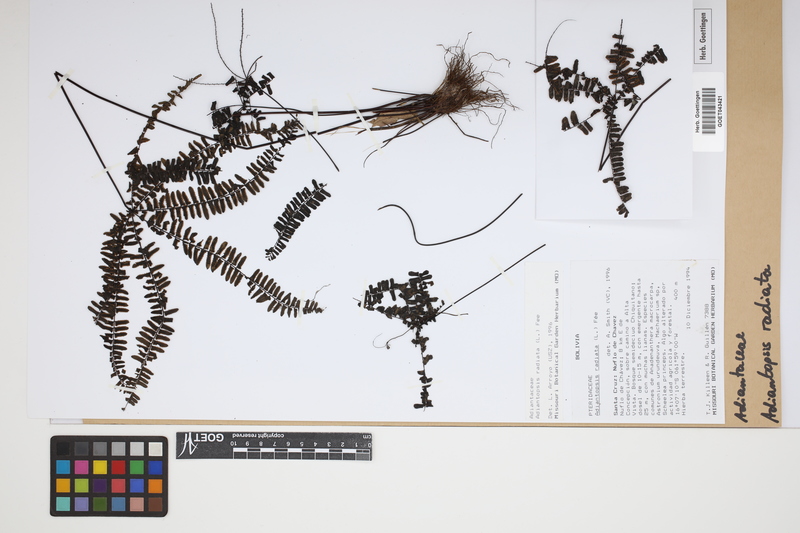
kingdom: Plantae
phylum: Tracheophyta
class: Polypodiopsida
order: Polypodiales
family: Pteridaceae
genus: Adiantopsis
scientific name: Adiantopsis radiata
